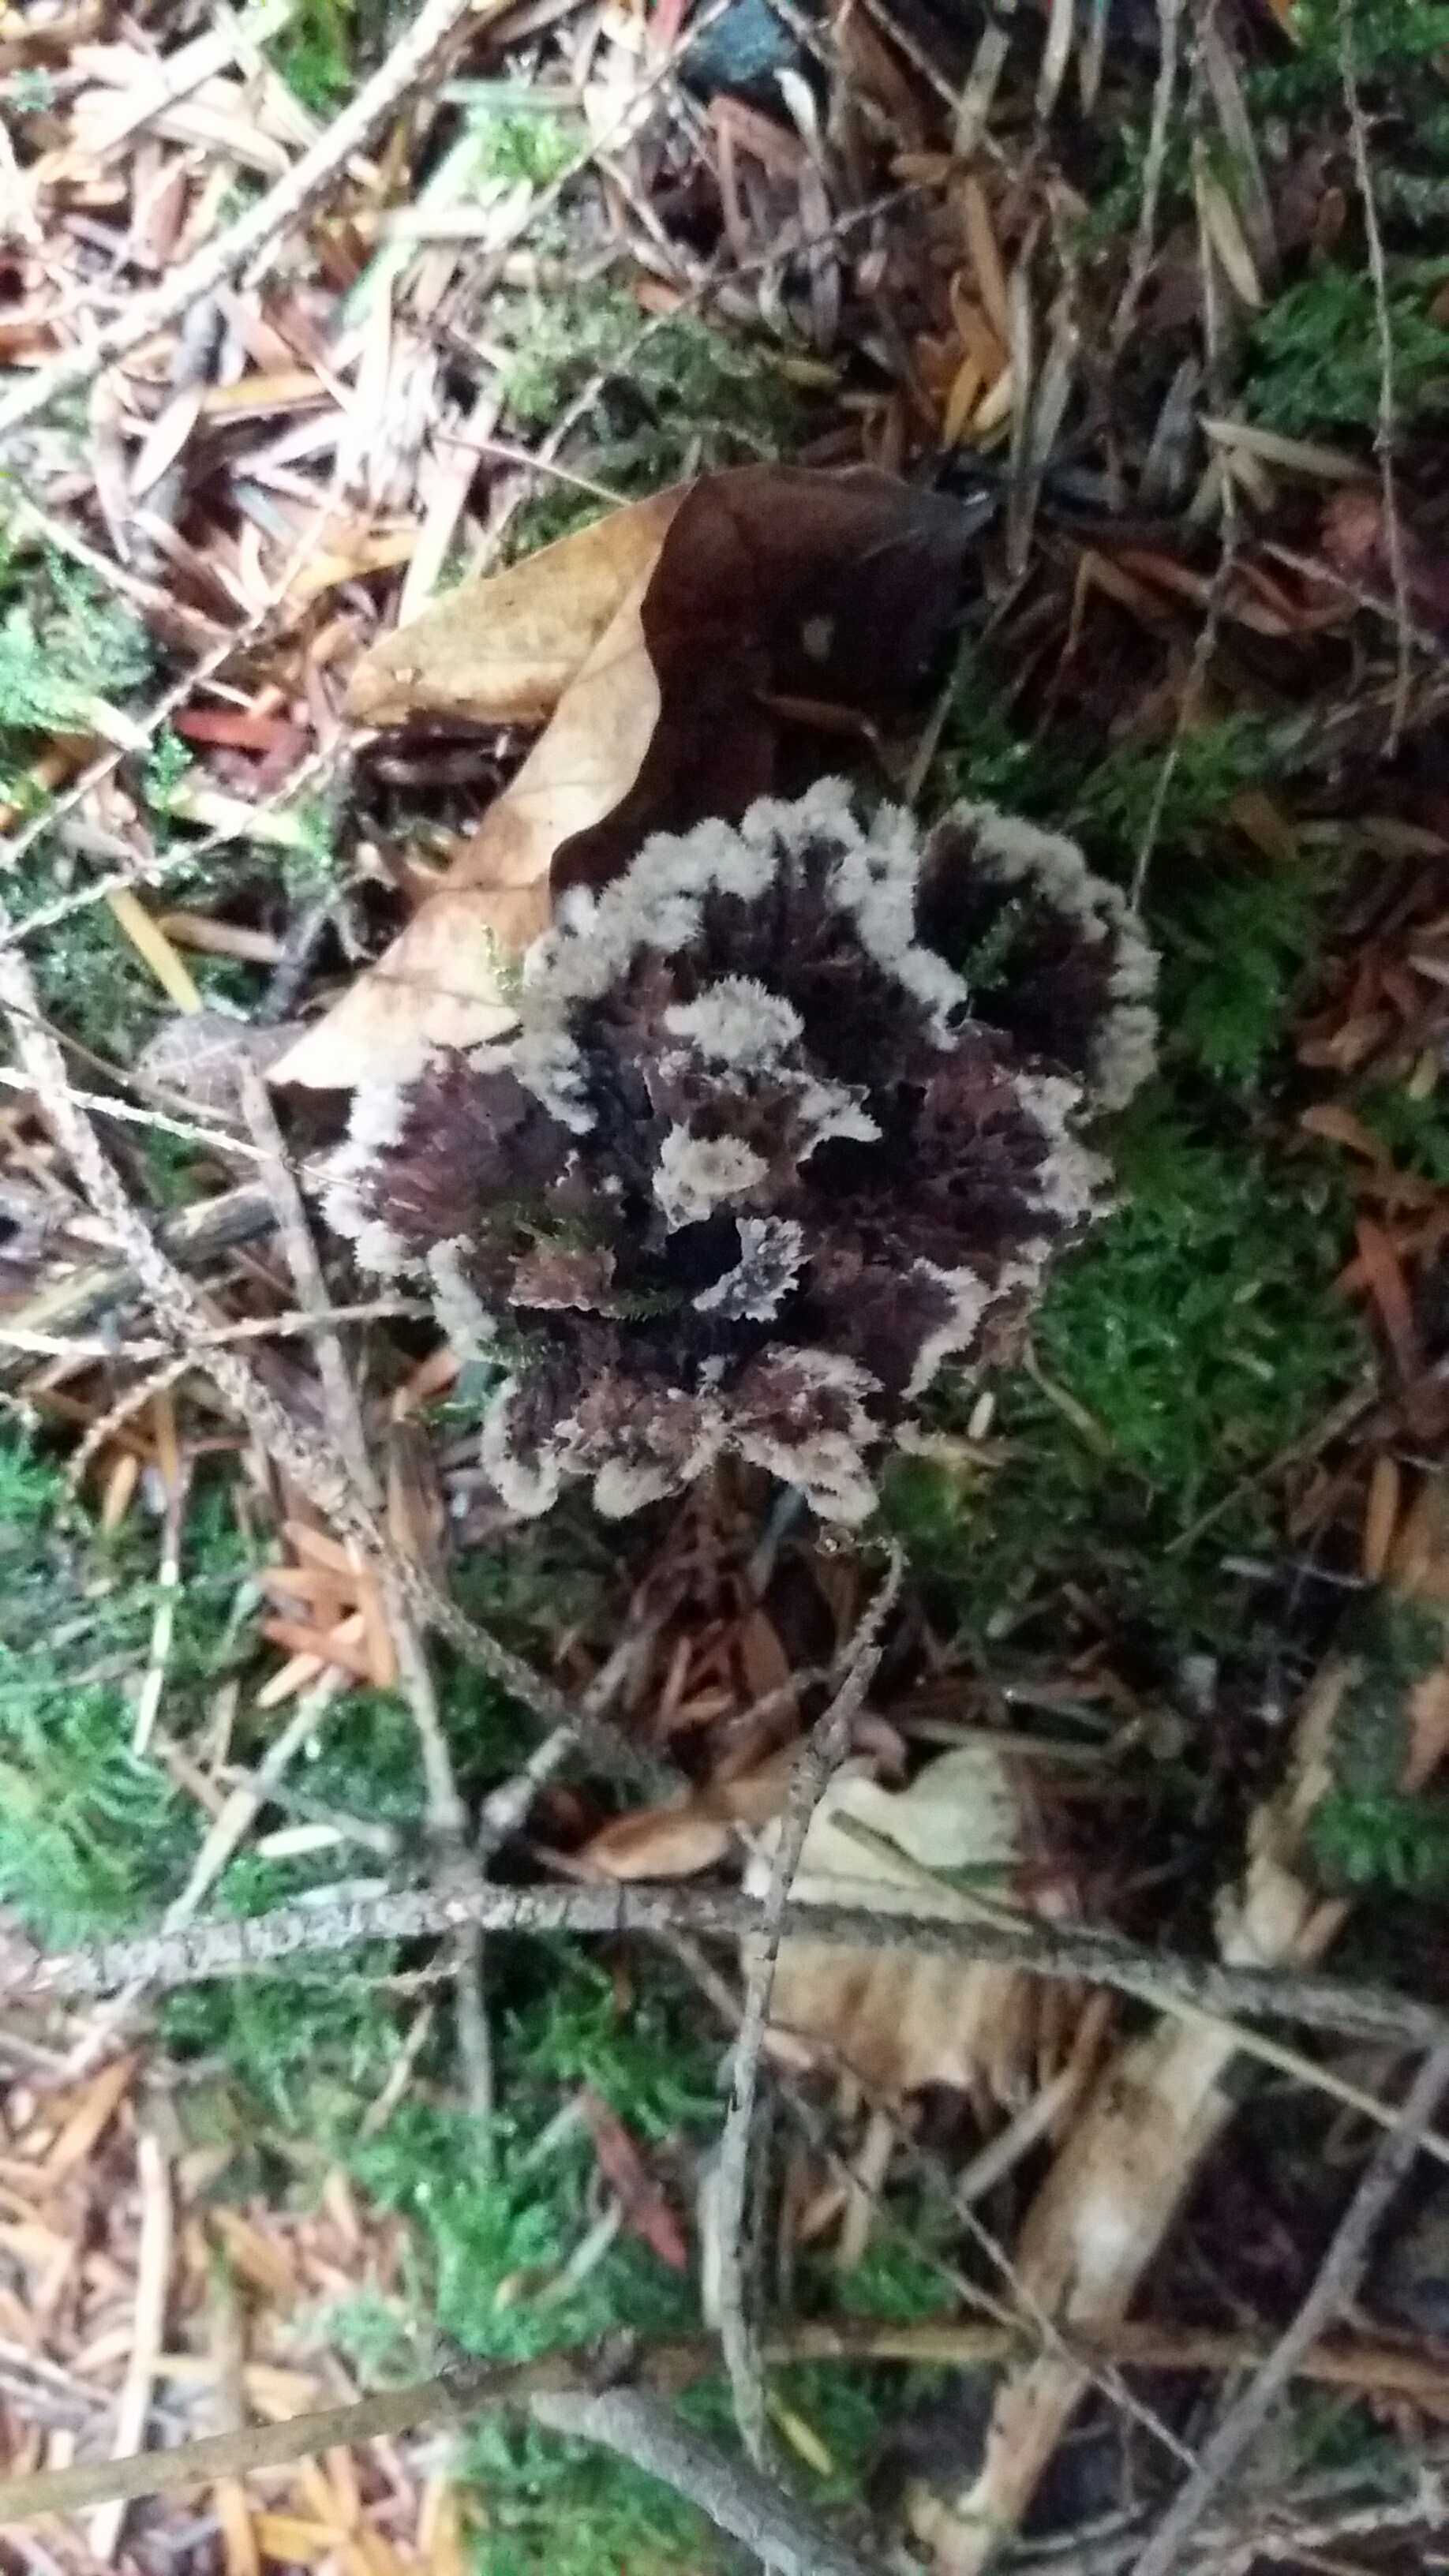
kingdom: Fungi
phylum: Basidiomycota
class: Agaricomycetes
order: Thelephorales
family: Thelephoraceae
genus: Thelephora
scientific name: Thelephora terrestris
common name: fliget frynsesvamp
